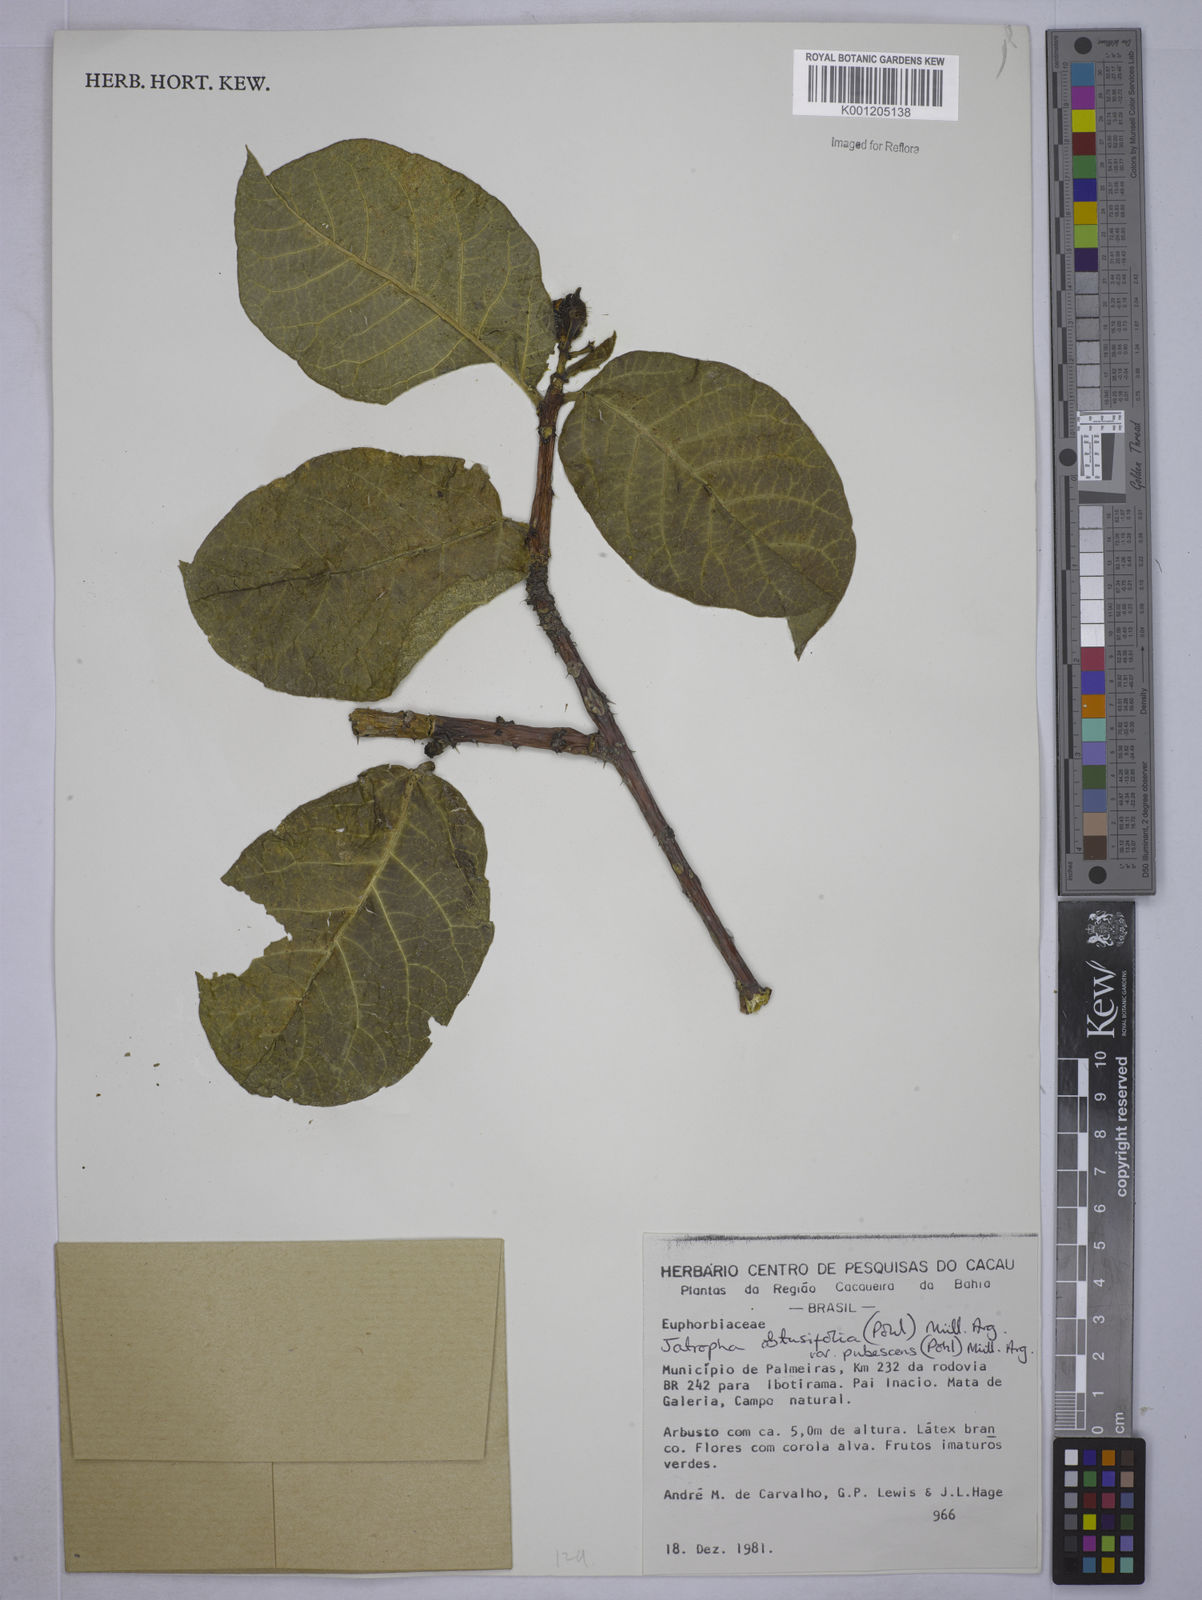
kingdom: Plantae
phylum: Tracheophyta
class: Magnoliopsida
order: Malpighiales
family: Euphorbiaceae
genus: Cnidoscolus
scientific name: Cnidoscolus
